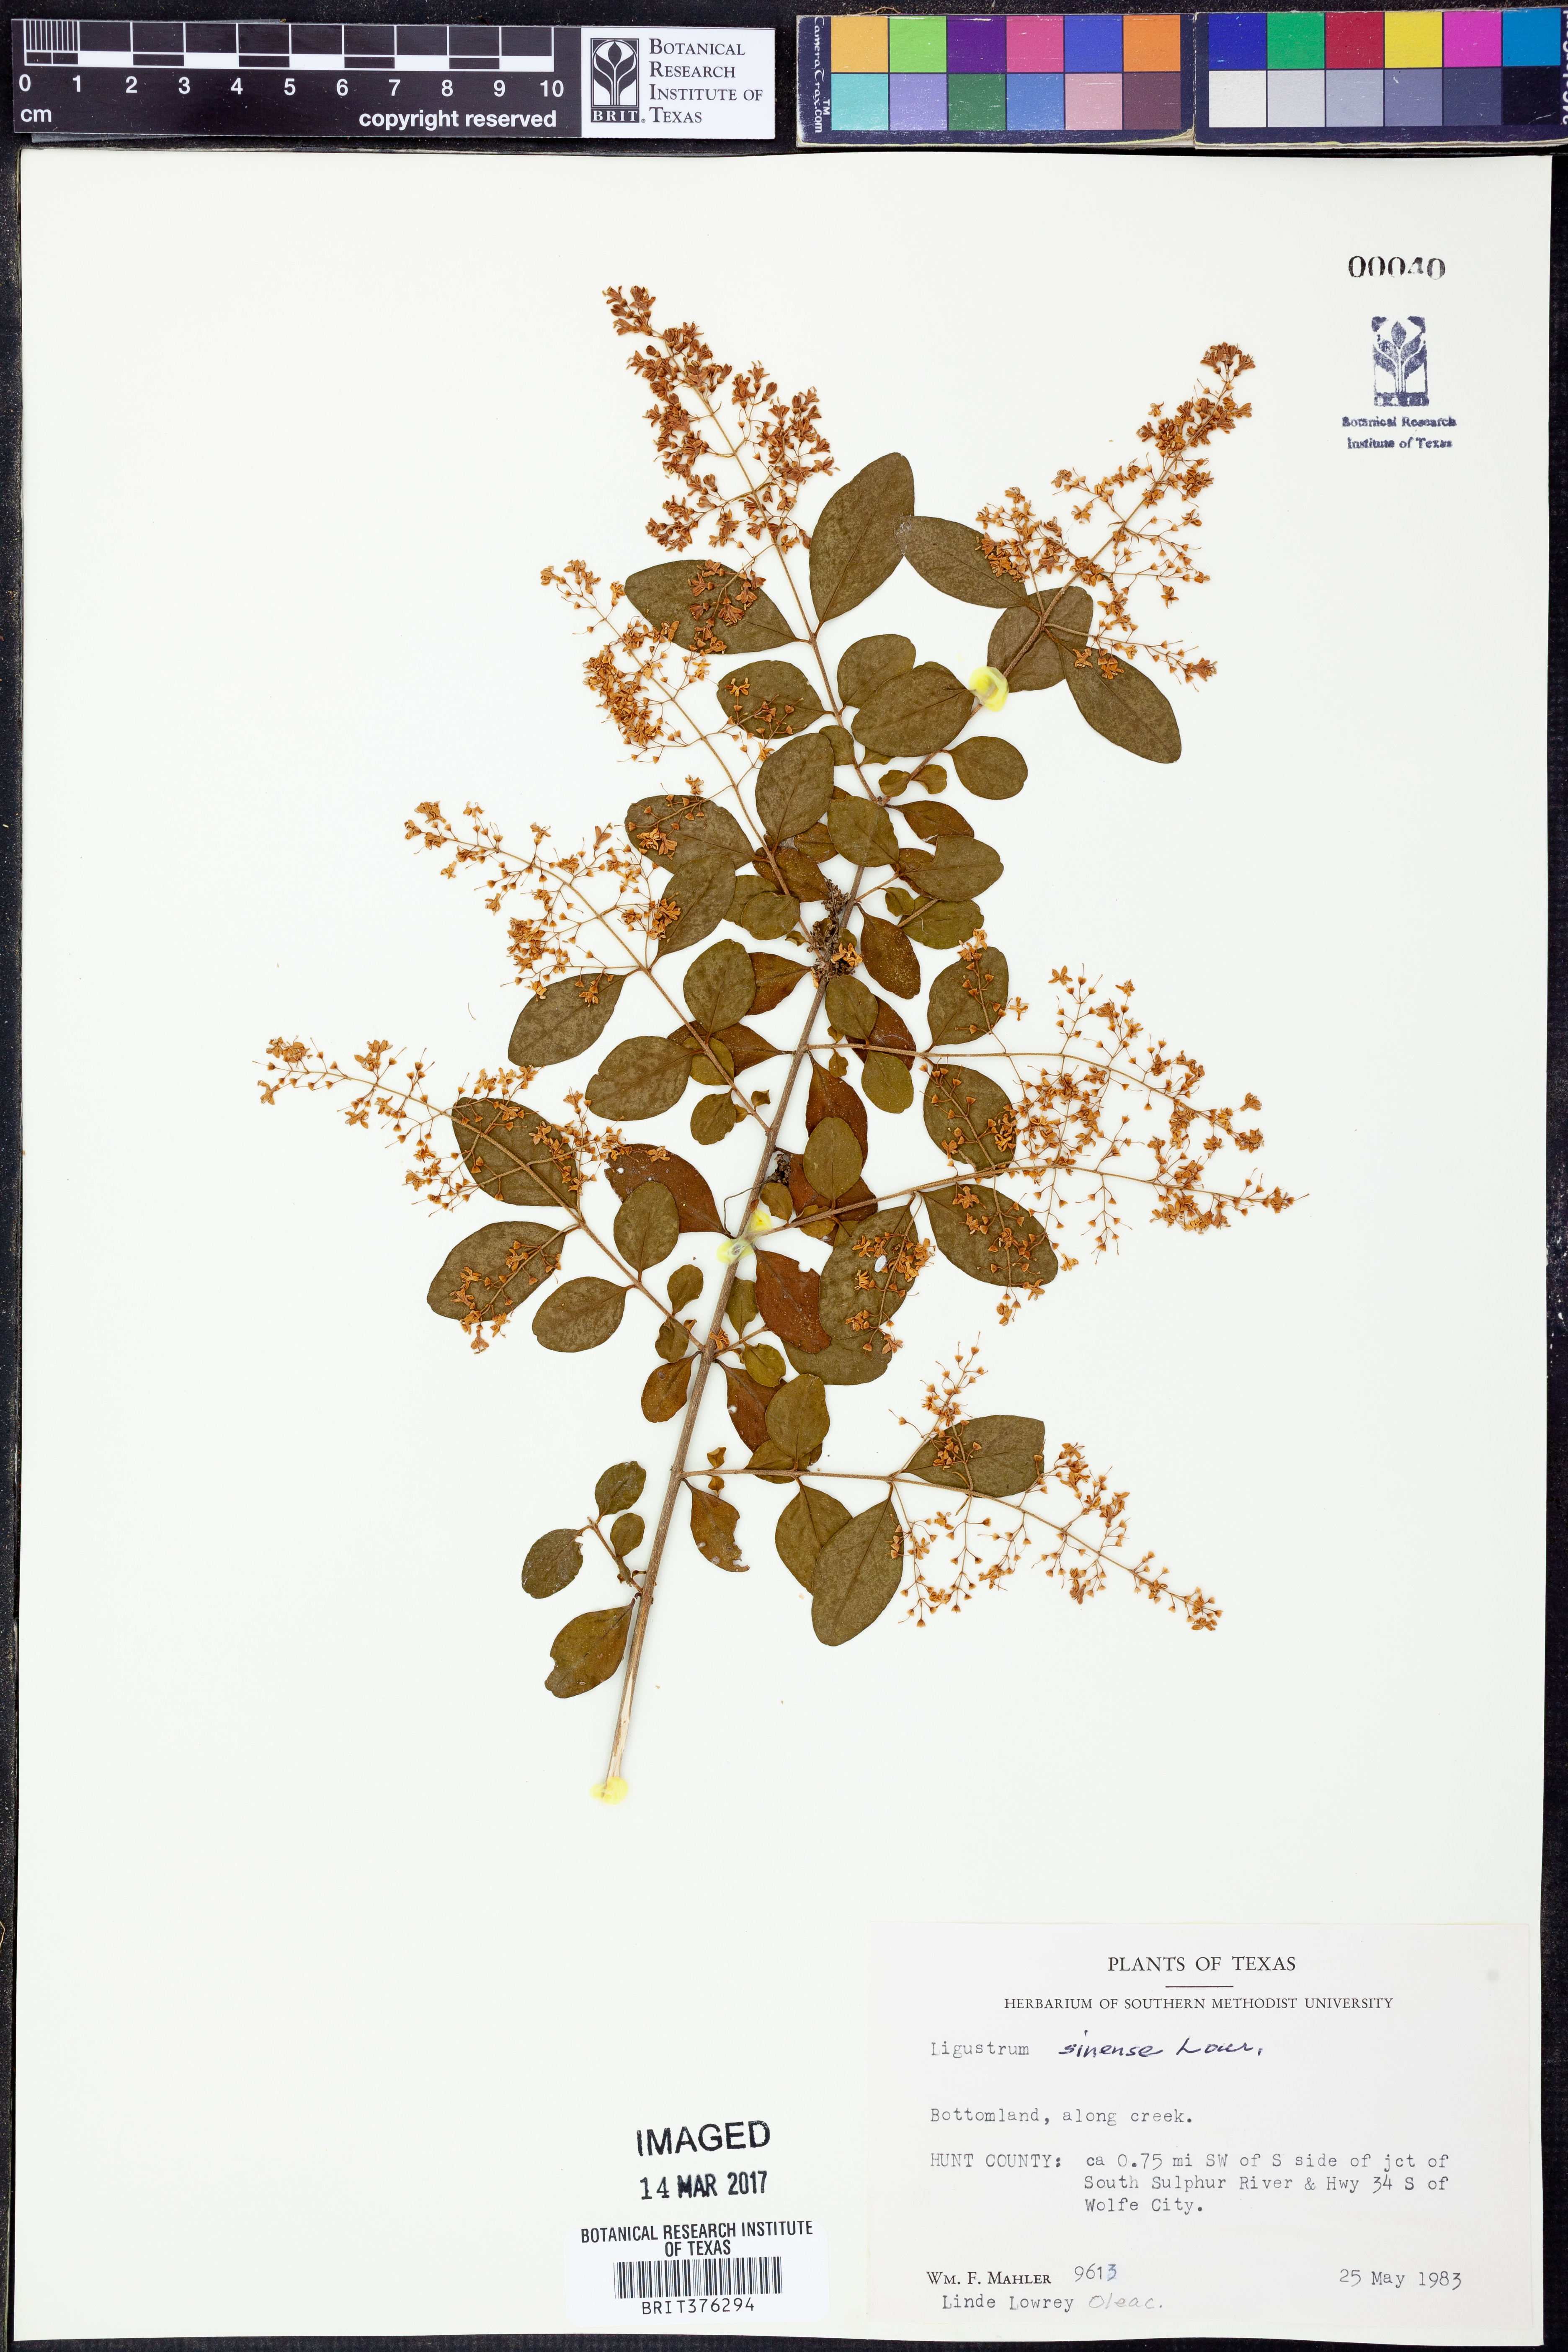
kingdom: Plantae
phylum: Tracheophyta
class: Magnoliopsida
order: Lamiales
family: Oleaceae
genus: Ligustrum
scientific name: Ligustrum sinense
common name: Chinese privet
